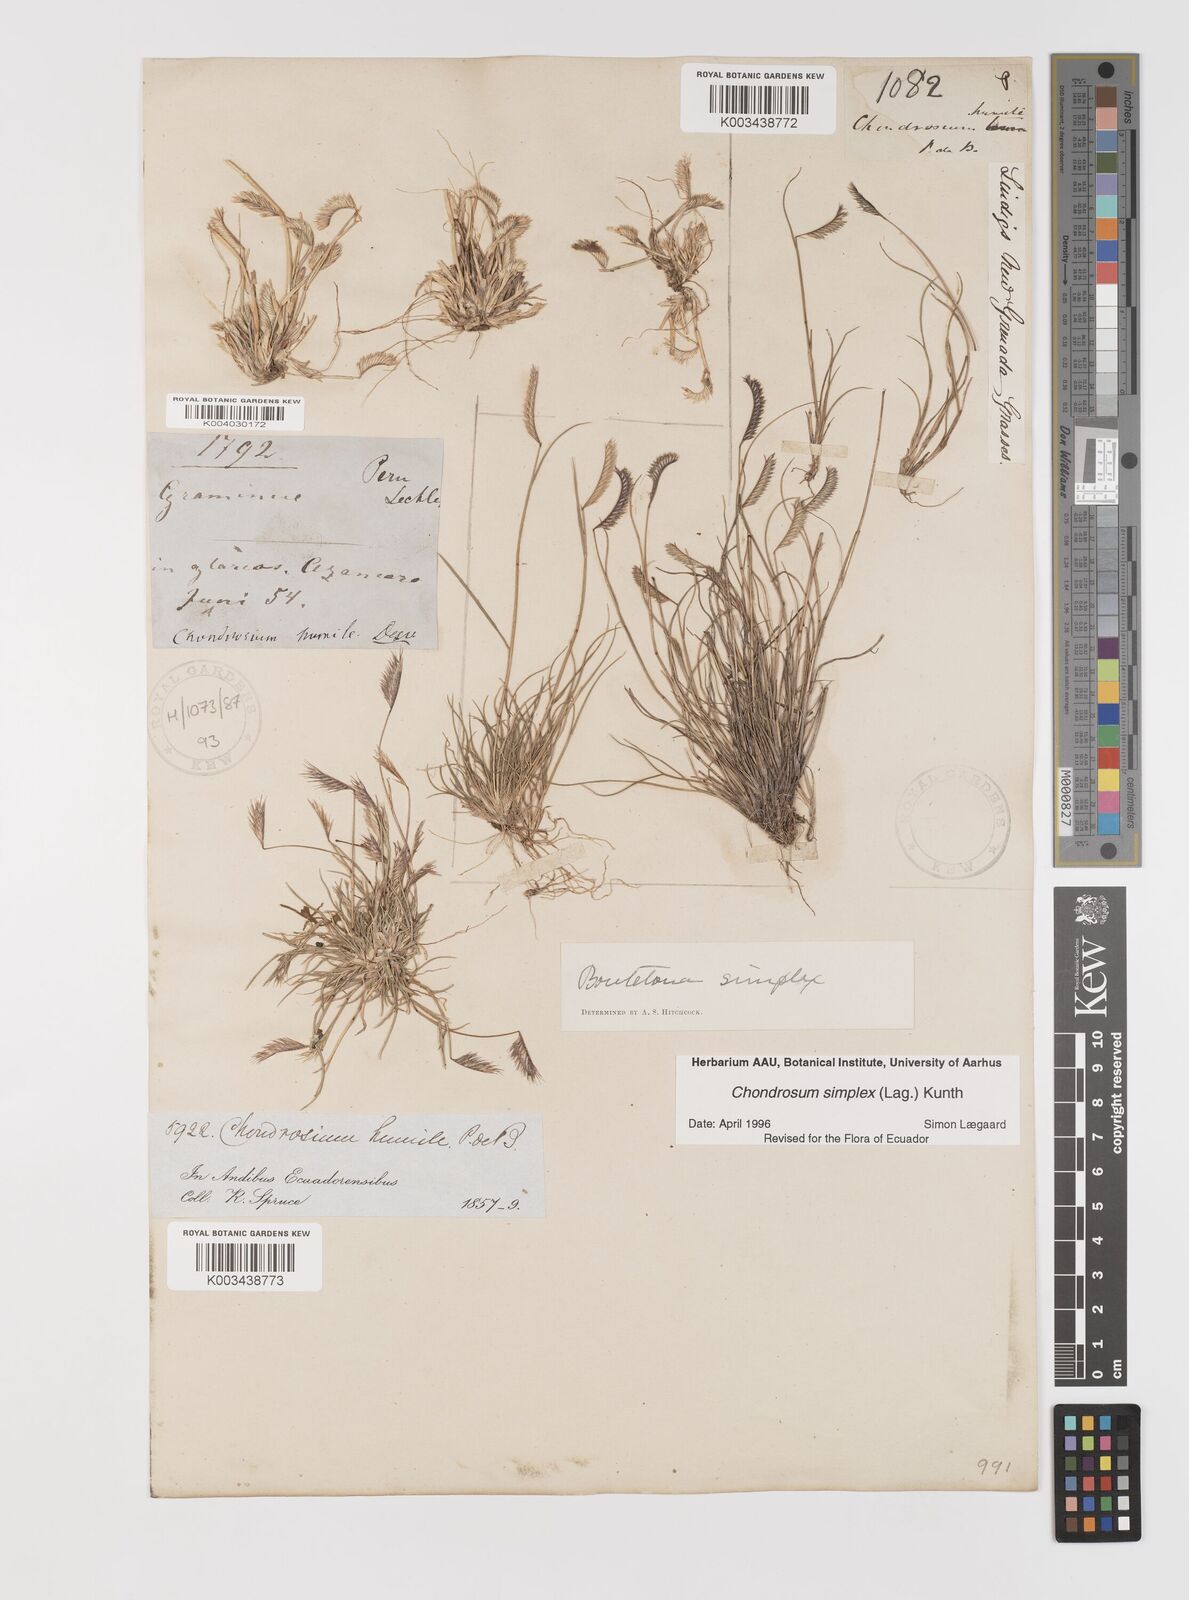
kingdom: Plantae
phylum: Tracheophyta
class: Liliopsida
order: Poales
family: Poaceae
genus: Bouteloua
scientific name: Bouteloua simplex
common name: Mat grama
